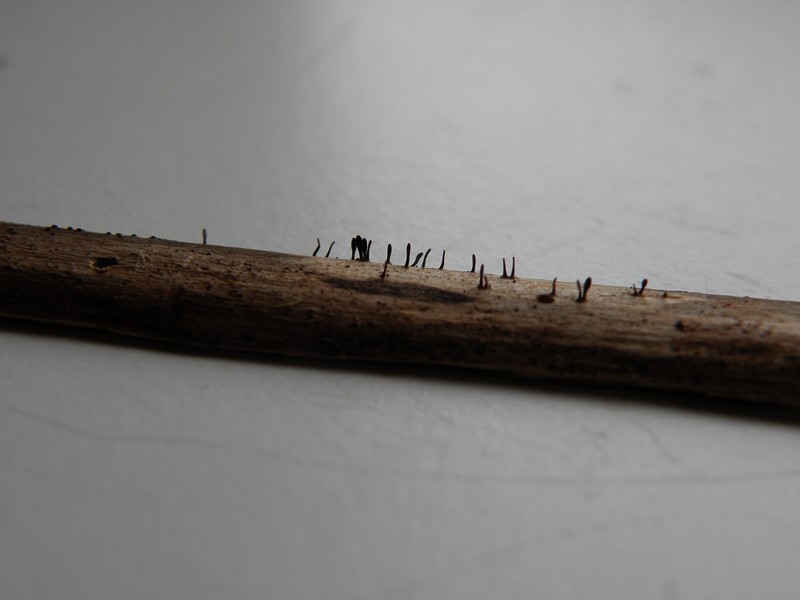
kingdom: Fungi
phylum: Ascomycota
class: Dothideomycetes
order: Acrospermales
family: Acrospermaceae
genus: Acrospermum
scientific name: Acrospermum compressum
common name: nælde-stængeltunge
